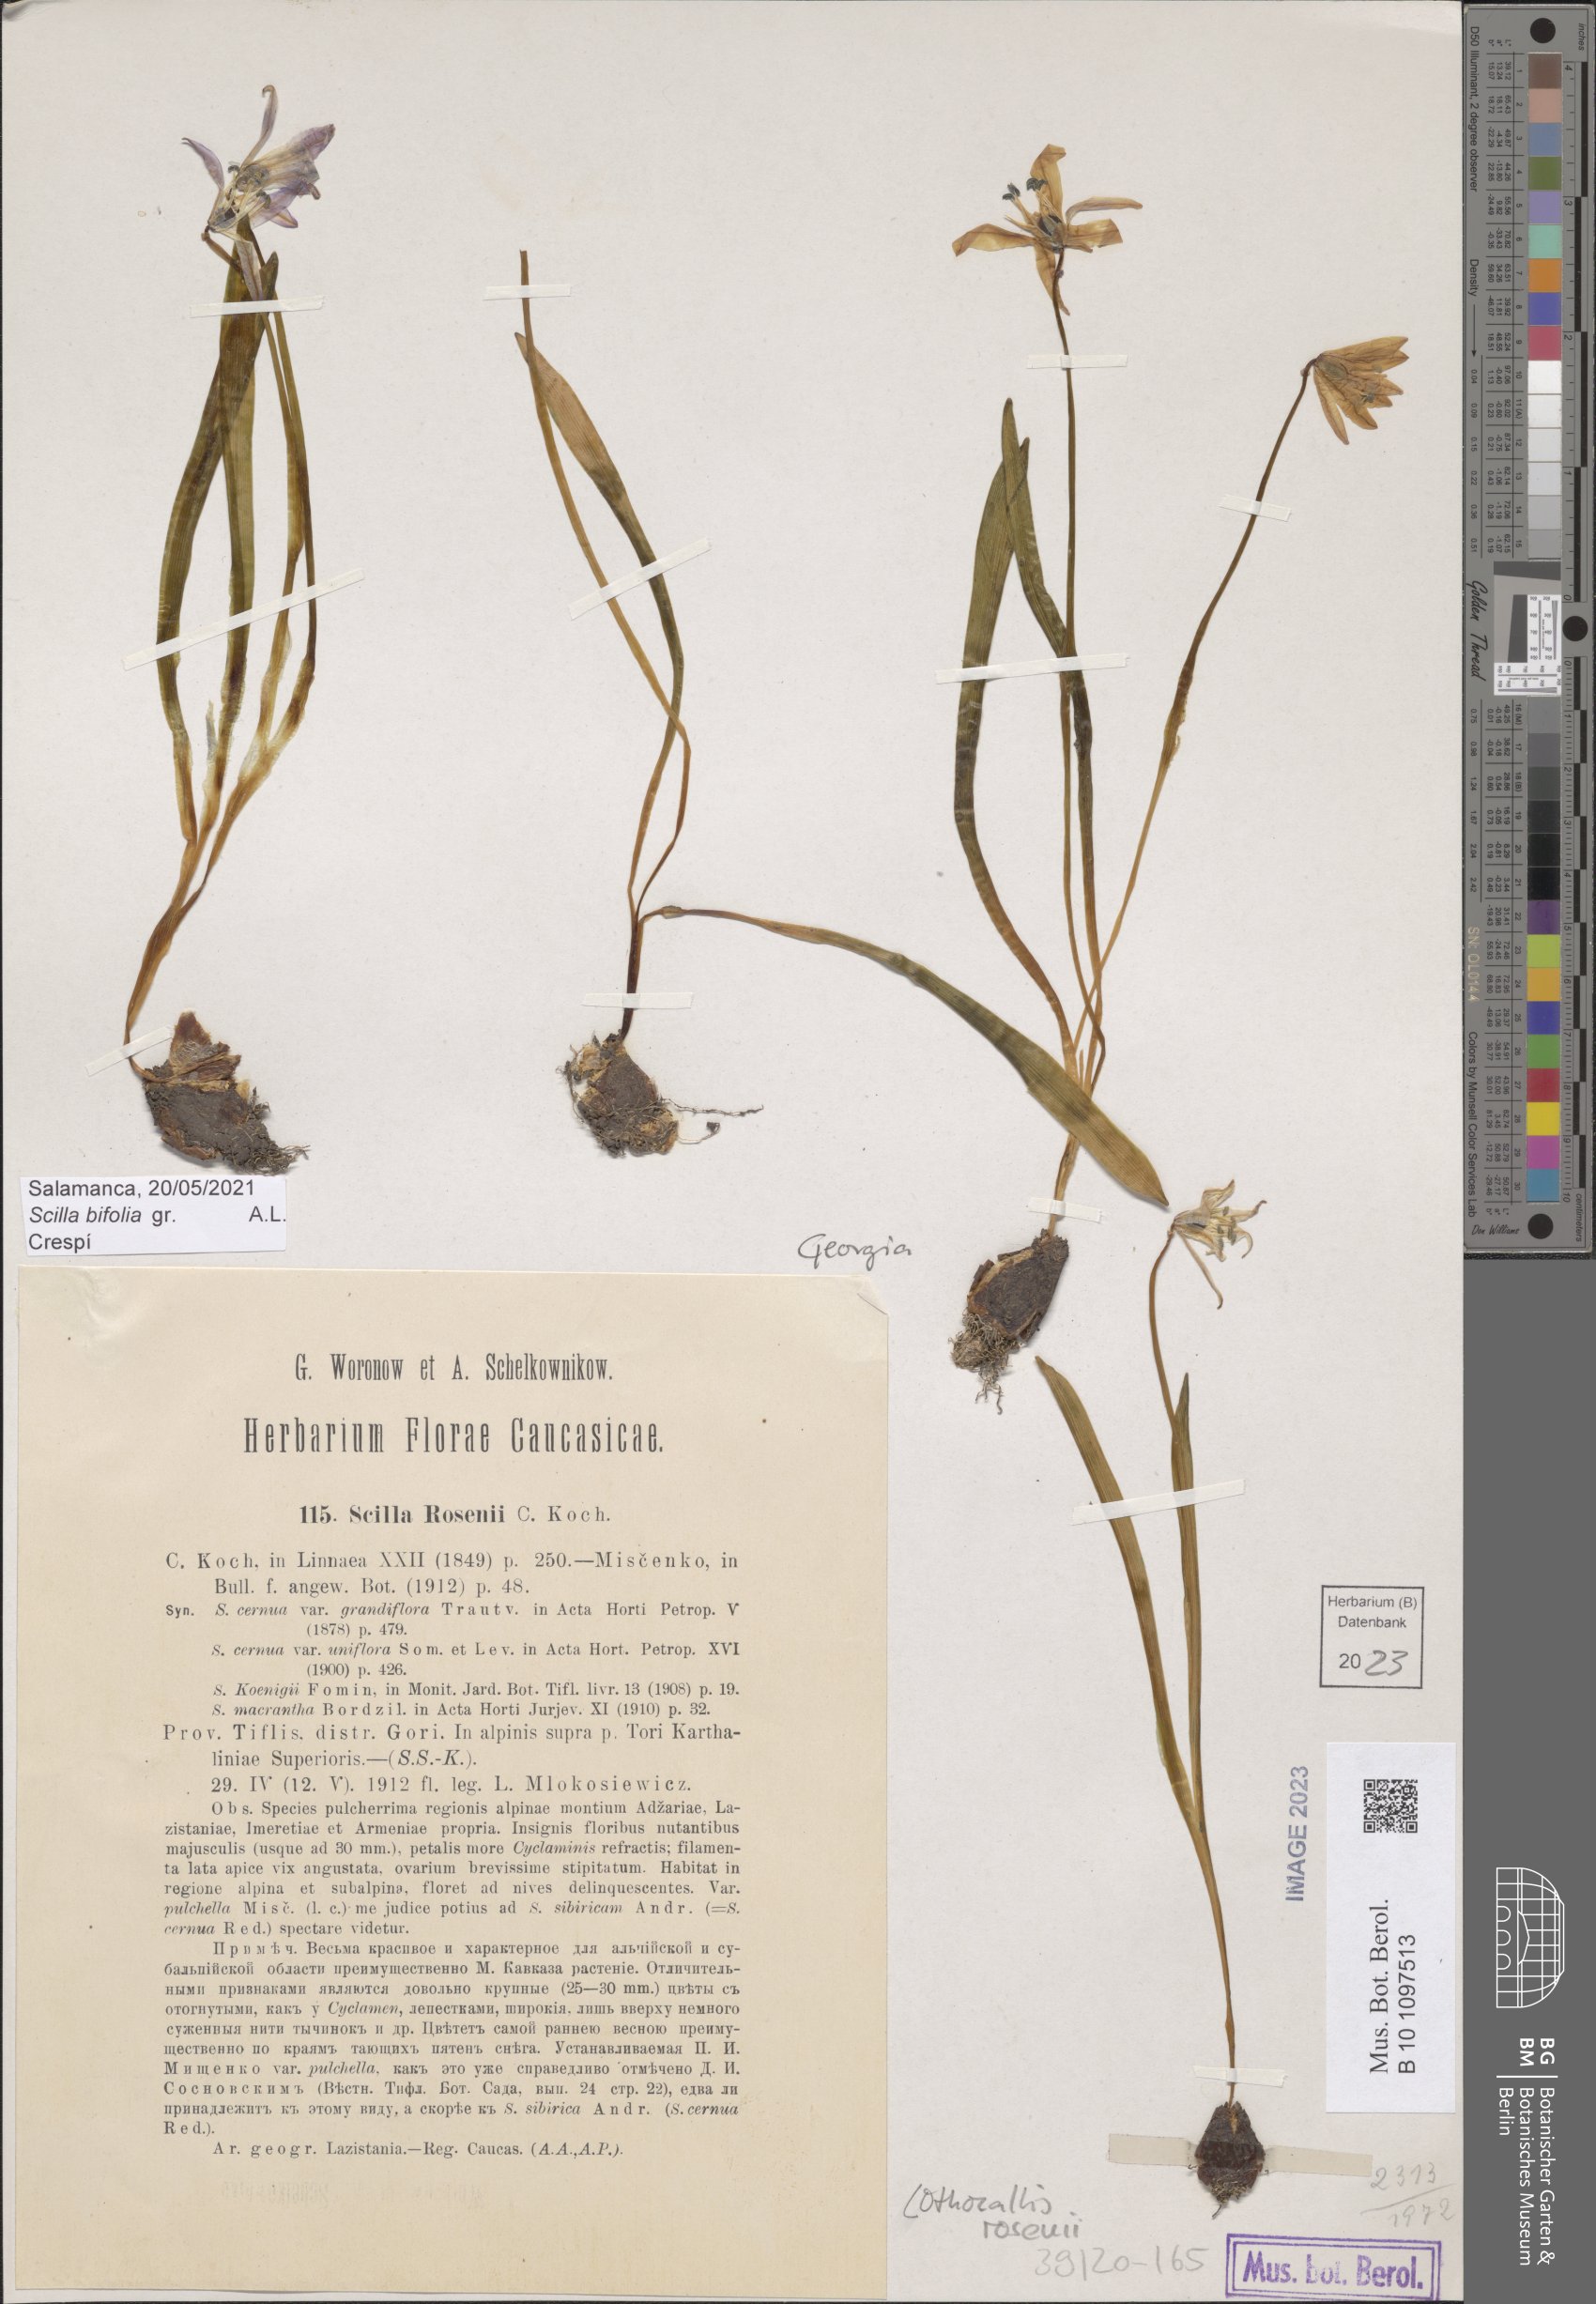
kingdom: Plantae
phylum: Tracheophyta
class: Liliopsida
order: Asparagales
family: Asparagaceae
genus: Scilla
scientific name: Scilla rosenii
